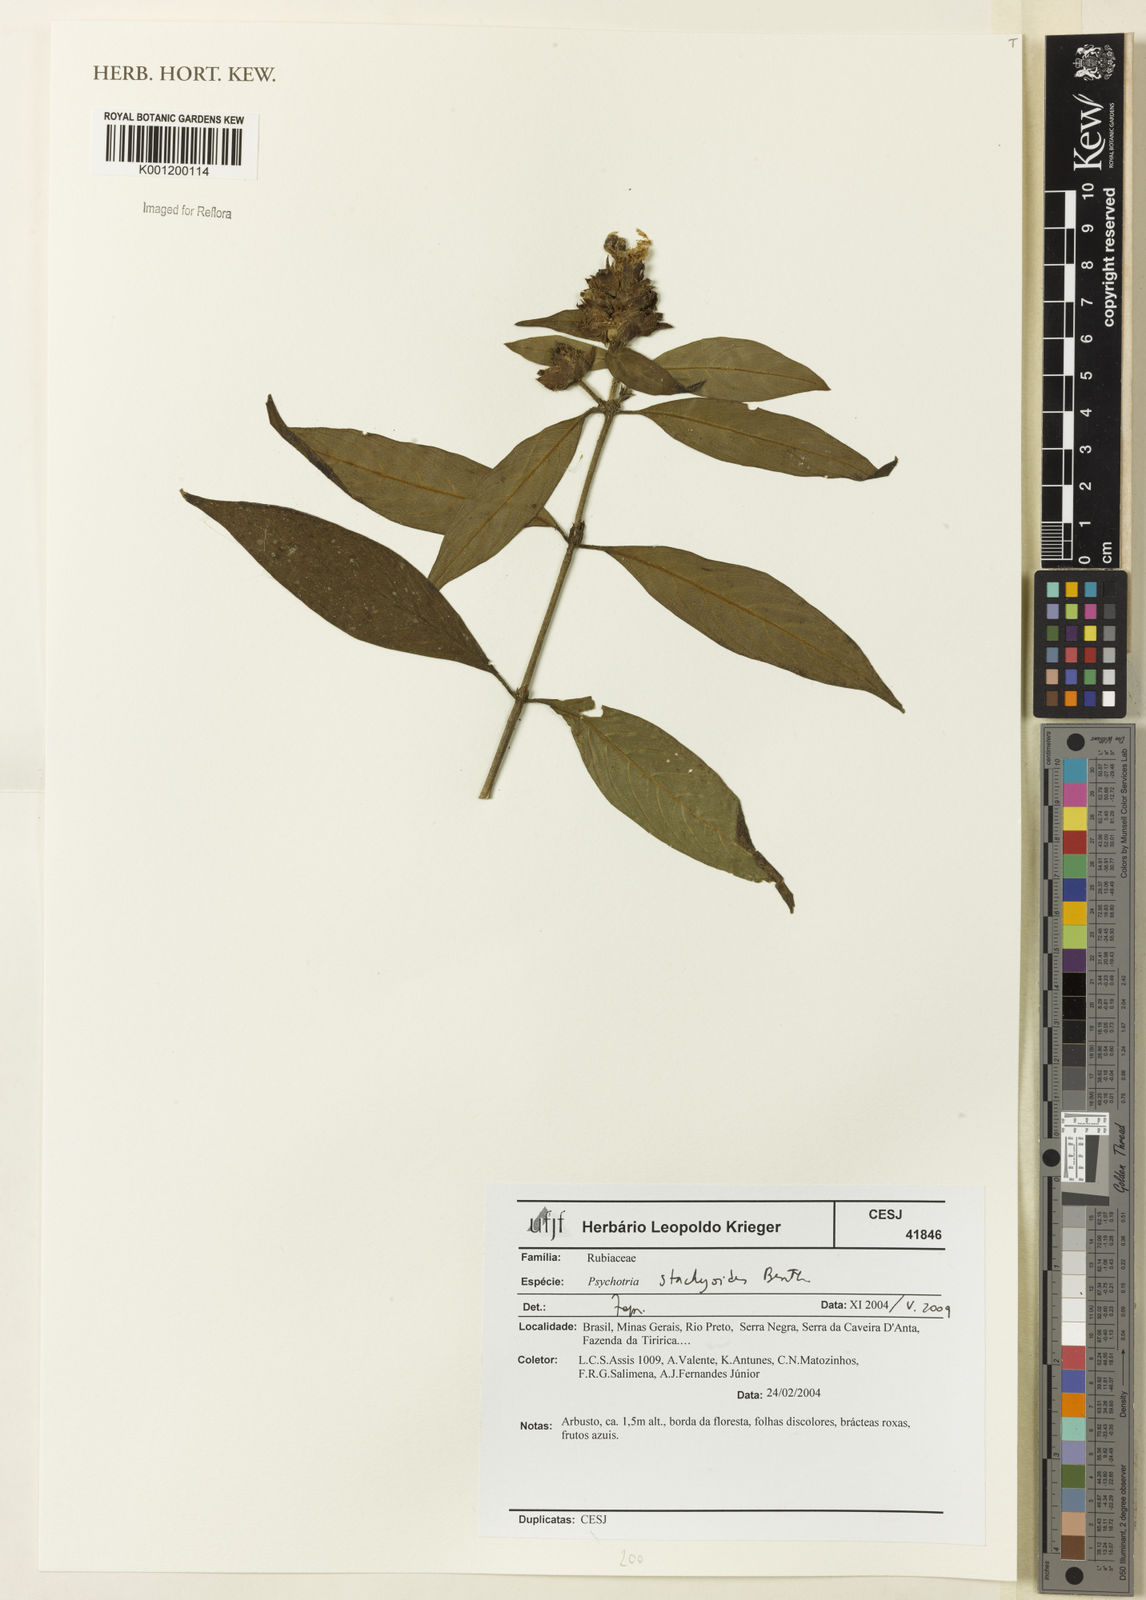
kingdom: Plantae
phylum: Tracheophyta
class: Magnoliopsida
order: Gentianales
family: Rubiaceae
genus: Psychotria
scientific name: Psychotria stachyoides
